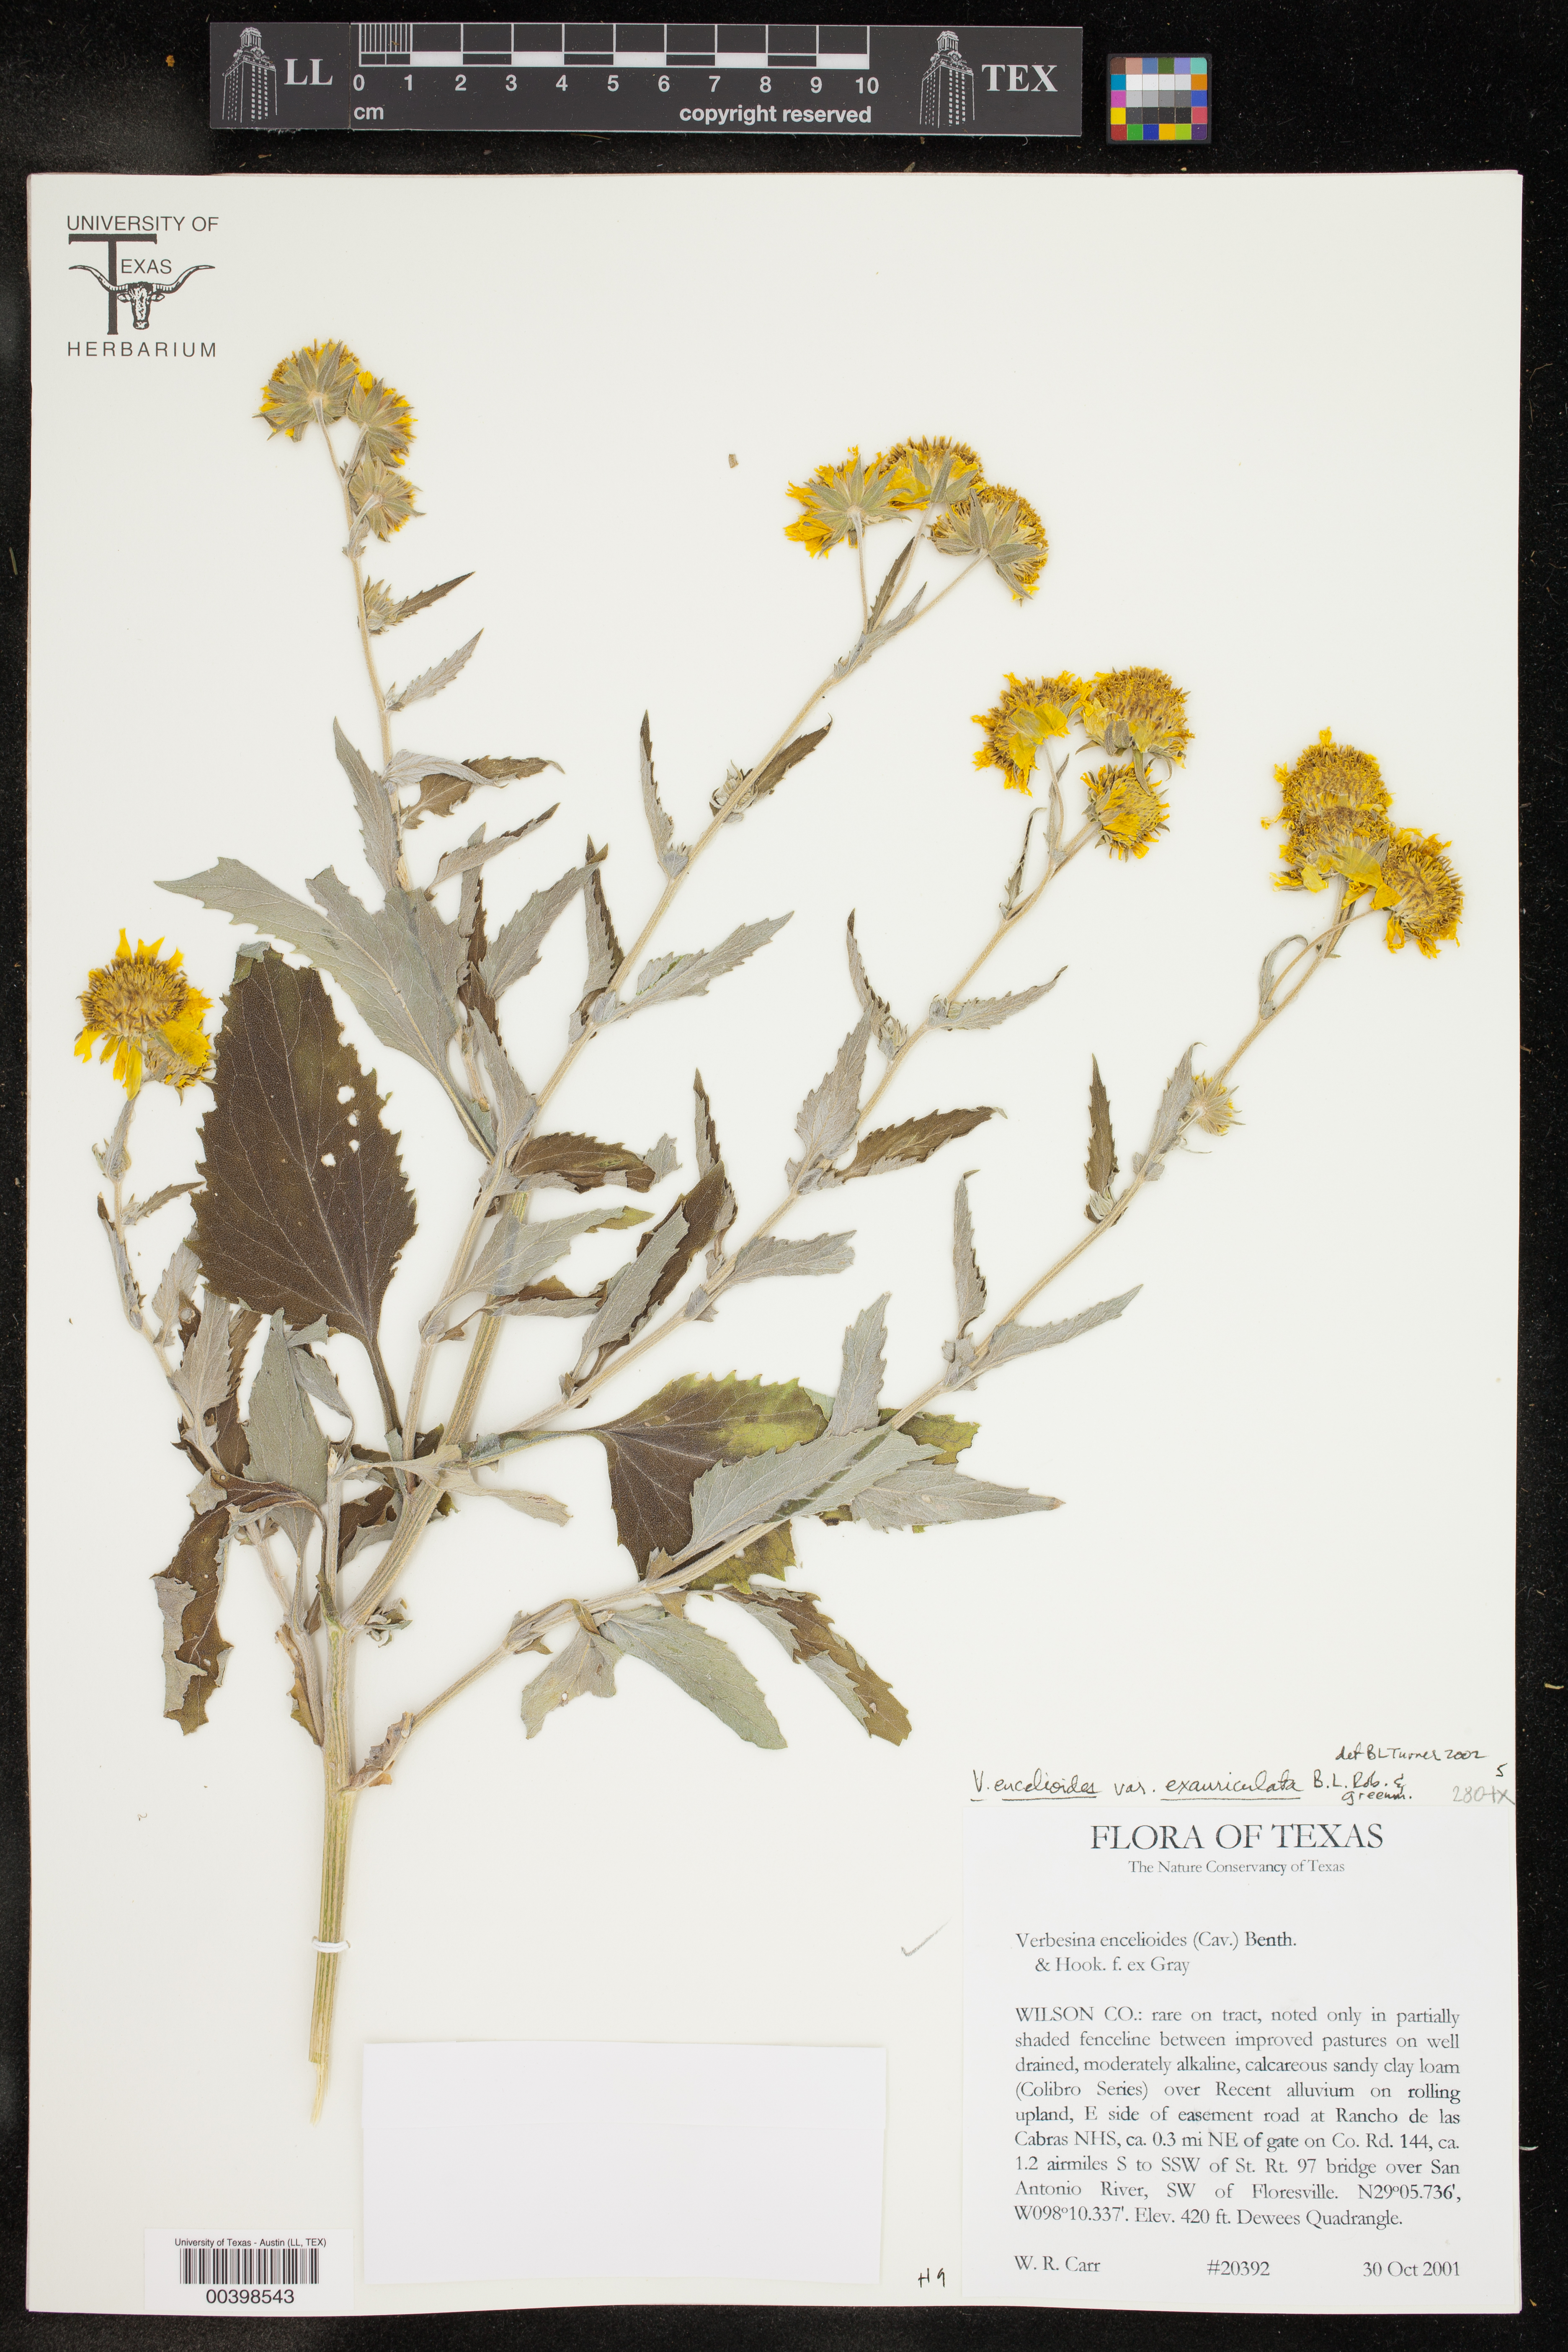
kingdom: Plantae
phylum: Tracheophyta
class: Magnoliopsida
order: Asterales
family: Asteraceae
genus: Verbesina
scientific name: Verbesina encelioides
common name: Golden crownbeard
